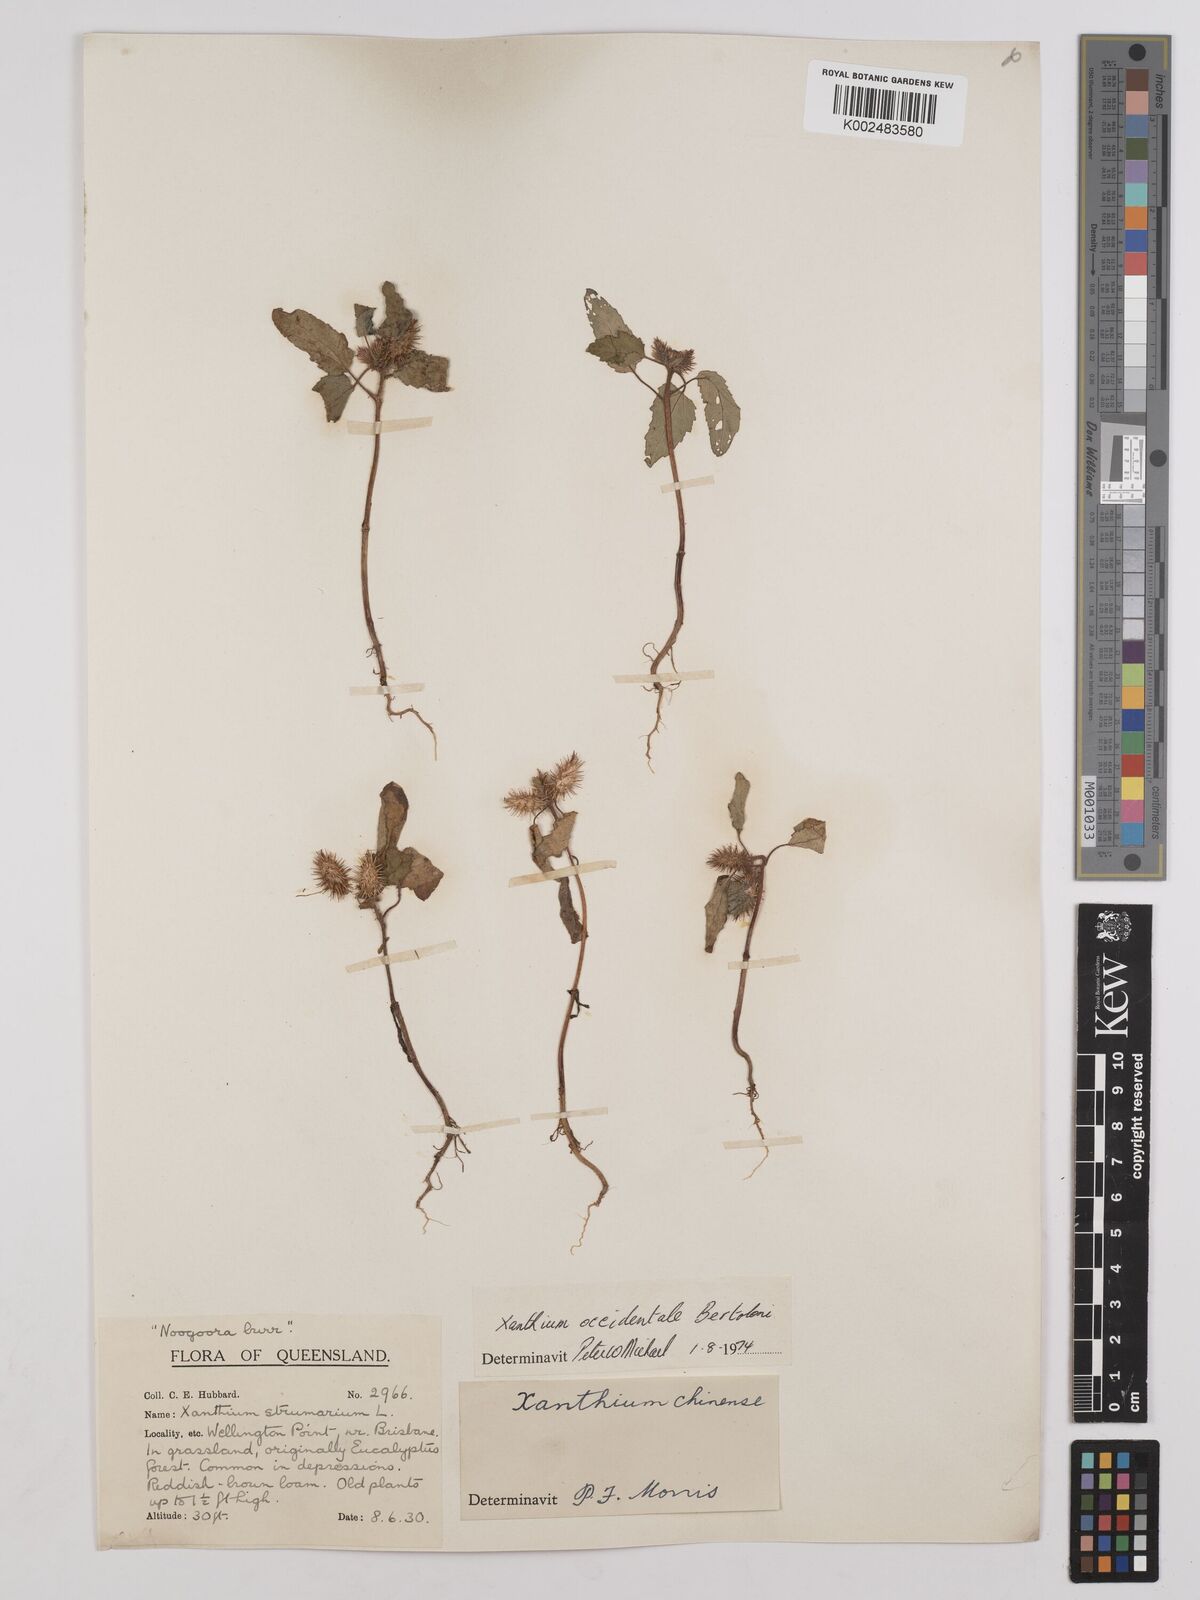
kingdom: Plantae
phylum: Tracheophyta
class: Magnoliopsida
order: Asterales
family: Asteraceae
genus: Xanthium
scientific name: Xanthium strumarium
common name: Rough cocklebur
